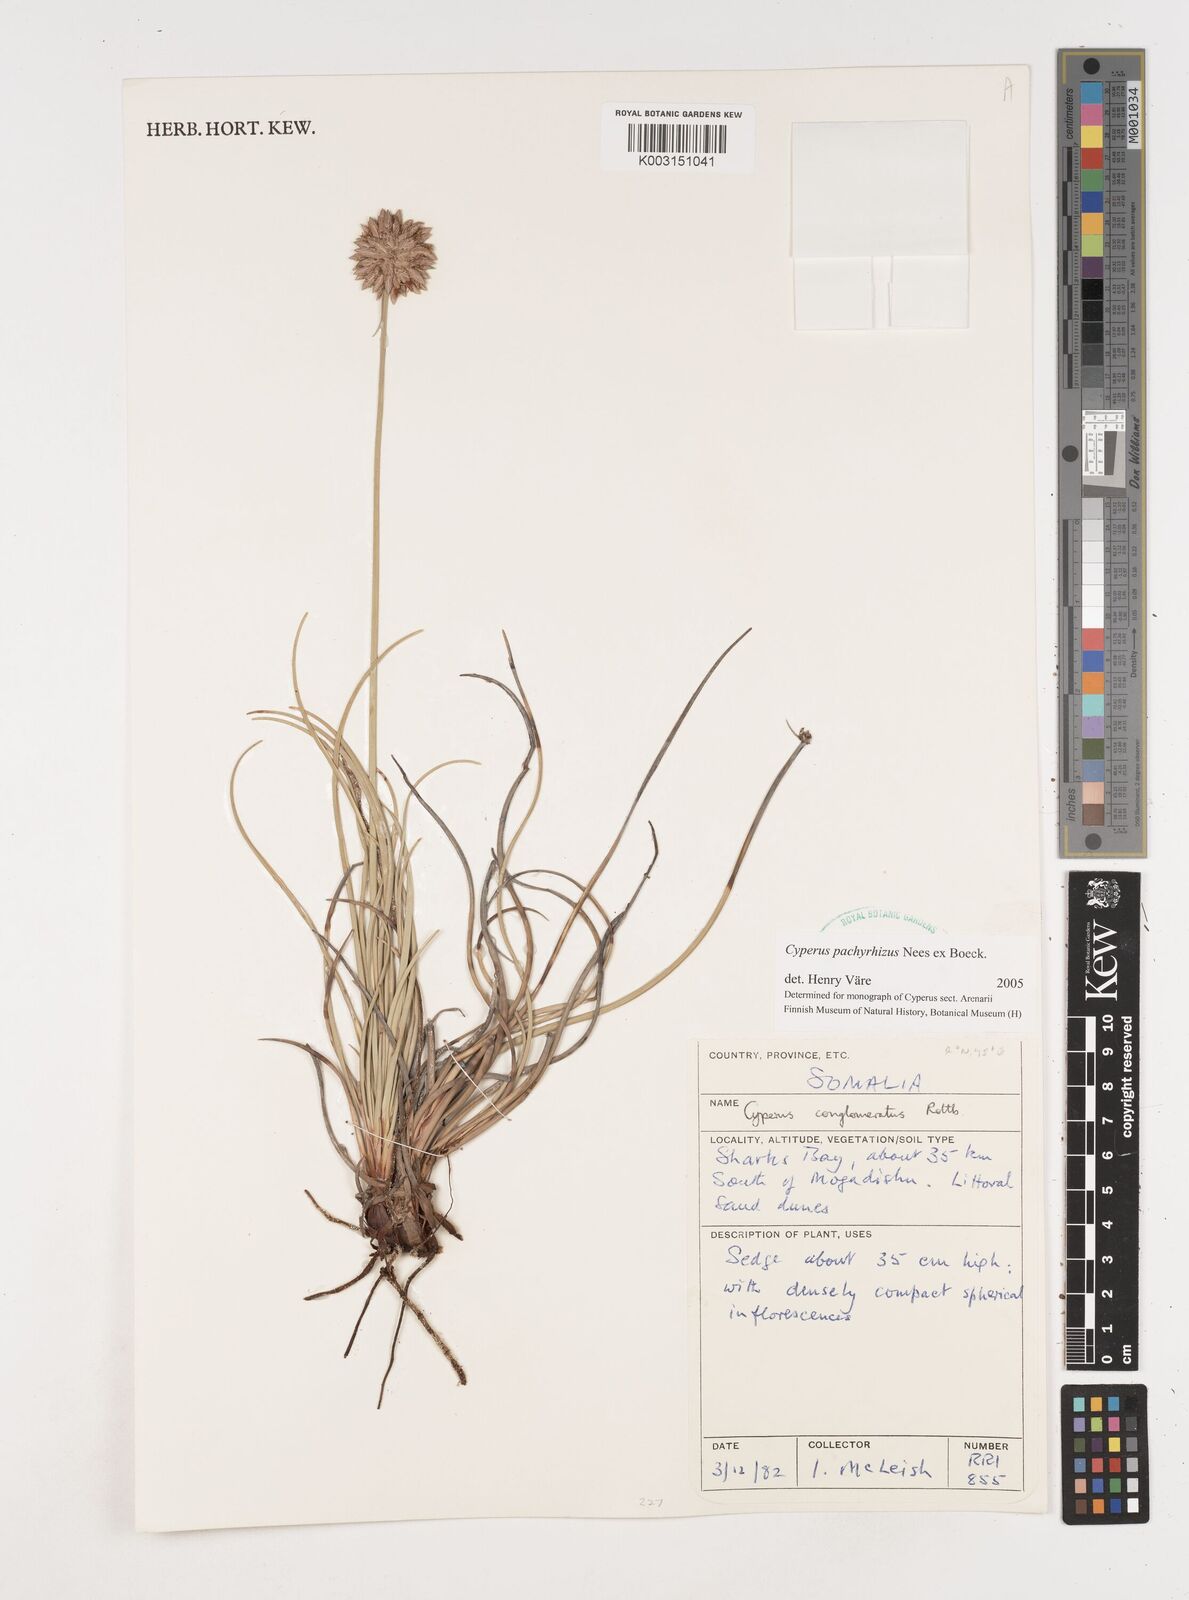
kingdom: Plantae
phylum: Tracheophyta
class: Liliopsida
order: Poales
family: Cyperaceae
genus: Cyperus
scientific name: Cyperus conglomeratus
